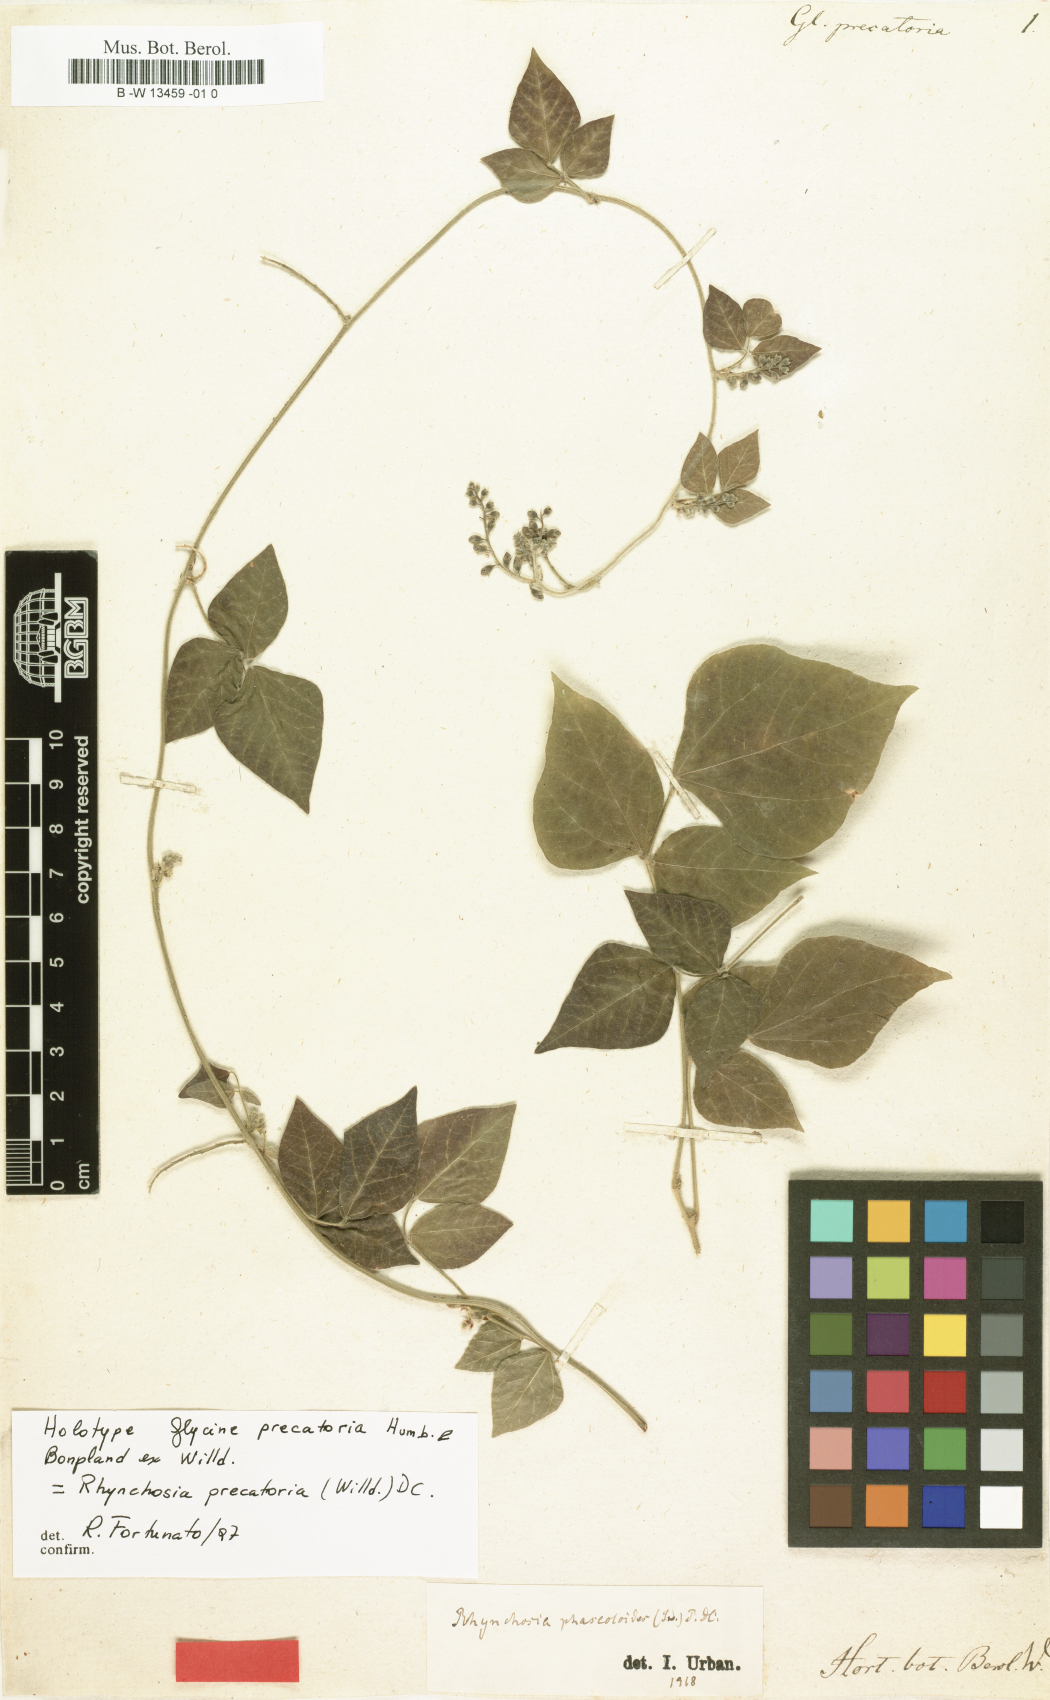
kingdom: Plantae
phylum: Tracheophyta
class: Magnoliopsida
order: Fabales
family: Fabaceae
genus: Rhynchosia
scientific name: Rhynchosia precatoria
